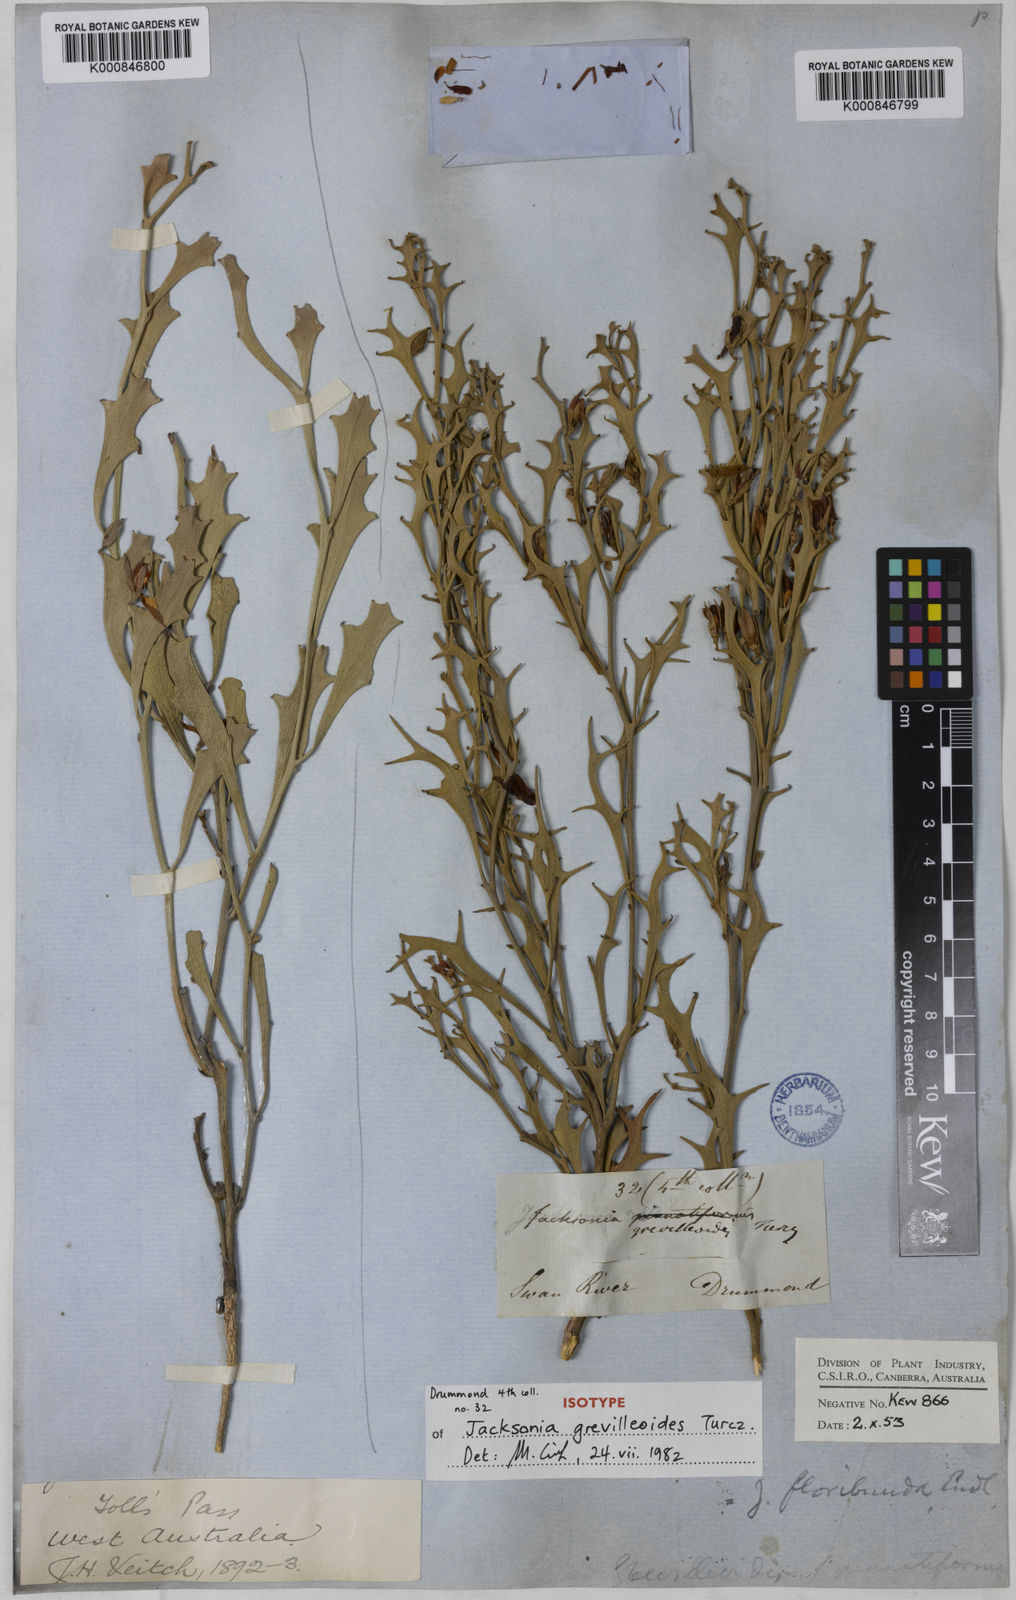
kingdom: Plantae
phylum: Tracheophyta
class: Magnoliopsida
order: Fabales
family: Fabaceae
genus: Jacksonia
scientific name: Jacksonia grevilleoides
